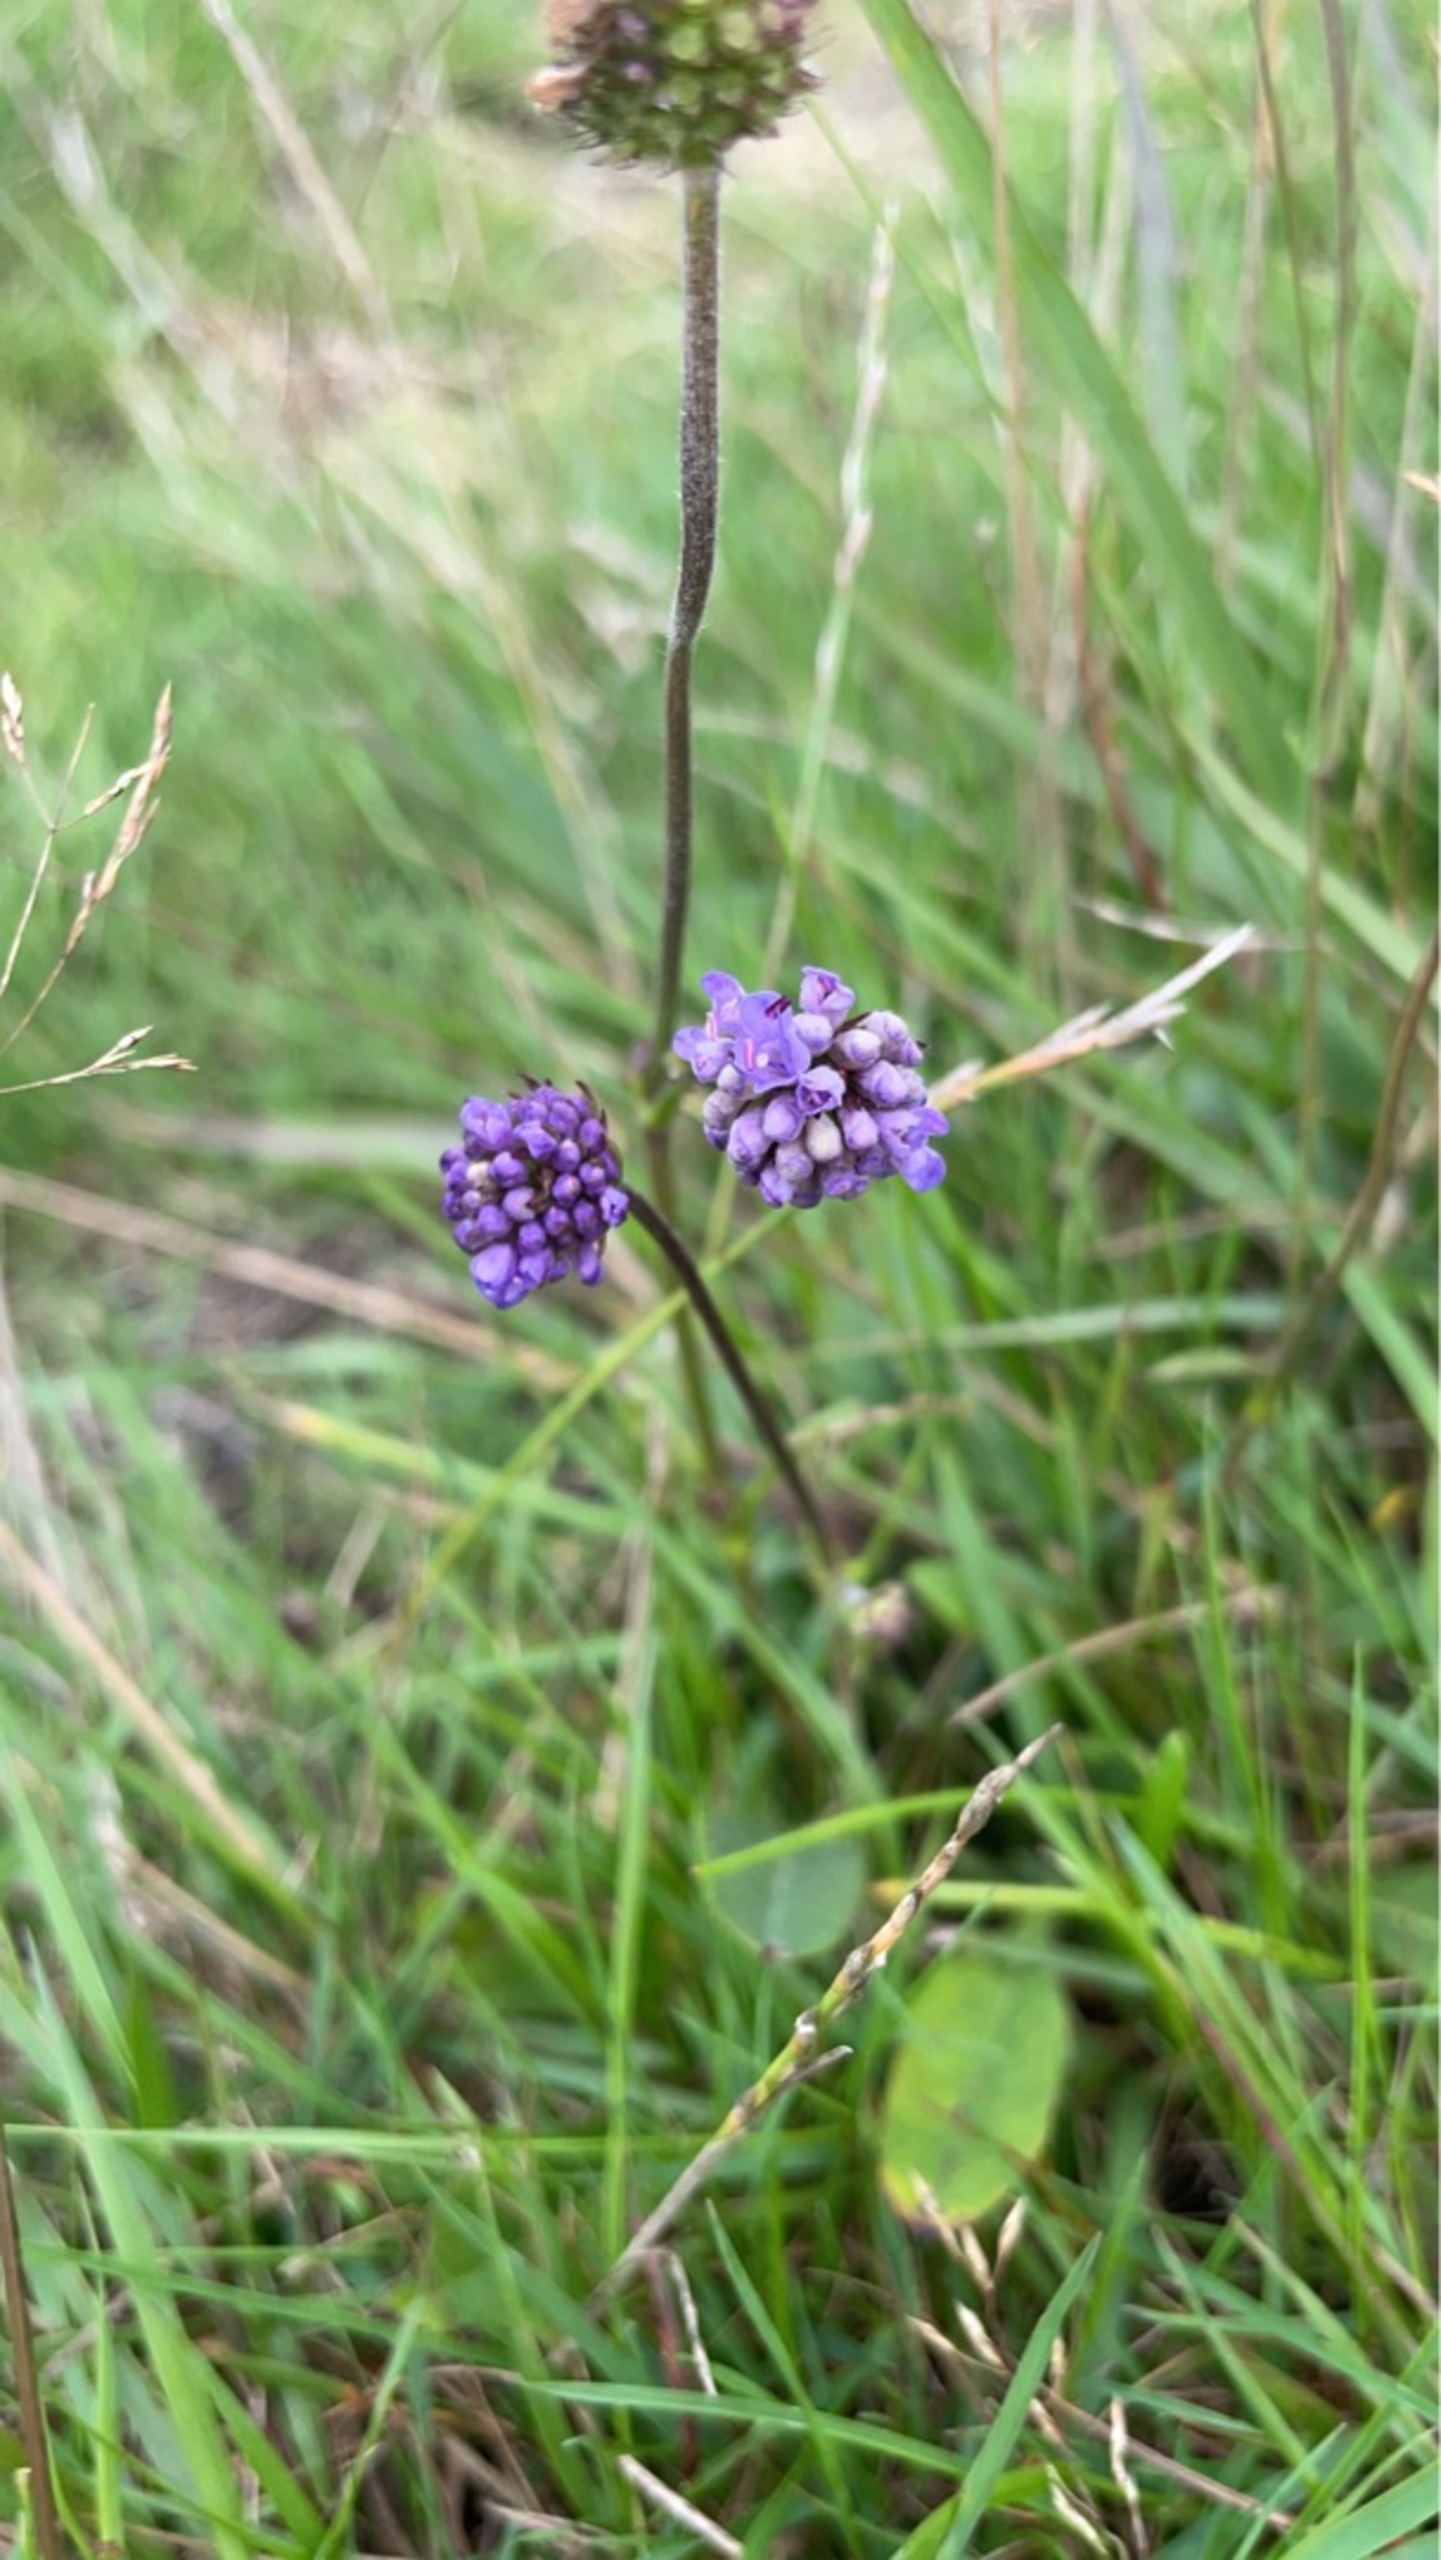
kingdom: Plantae
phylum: Tracheophyta
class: Magnoliopsida
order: Dipsacales
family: Caprifoliaceae
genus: Succisa
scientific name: Succisa pratensis
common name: Djævelsbid
